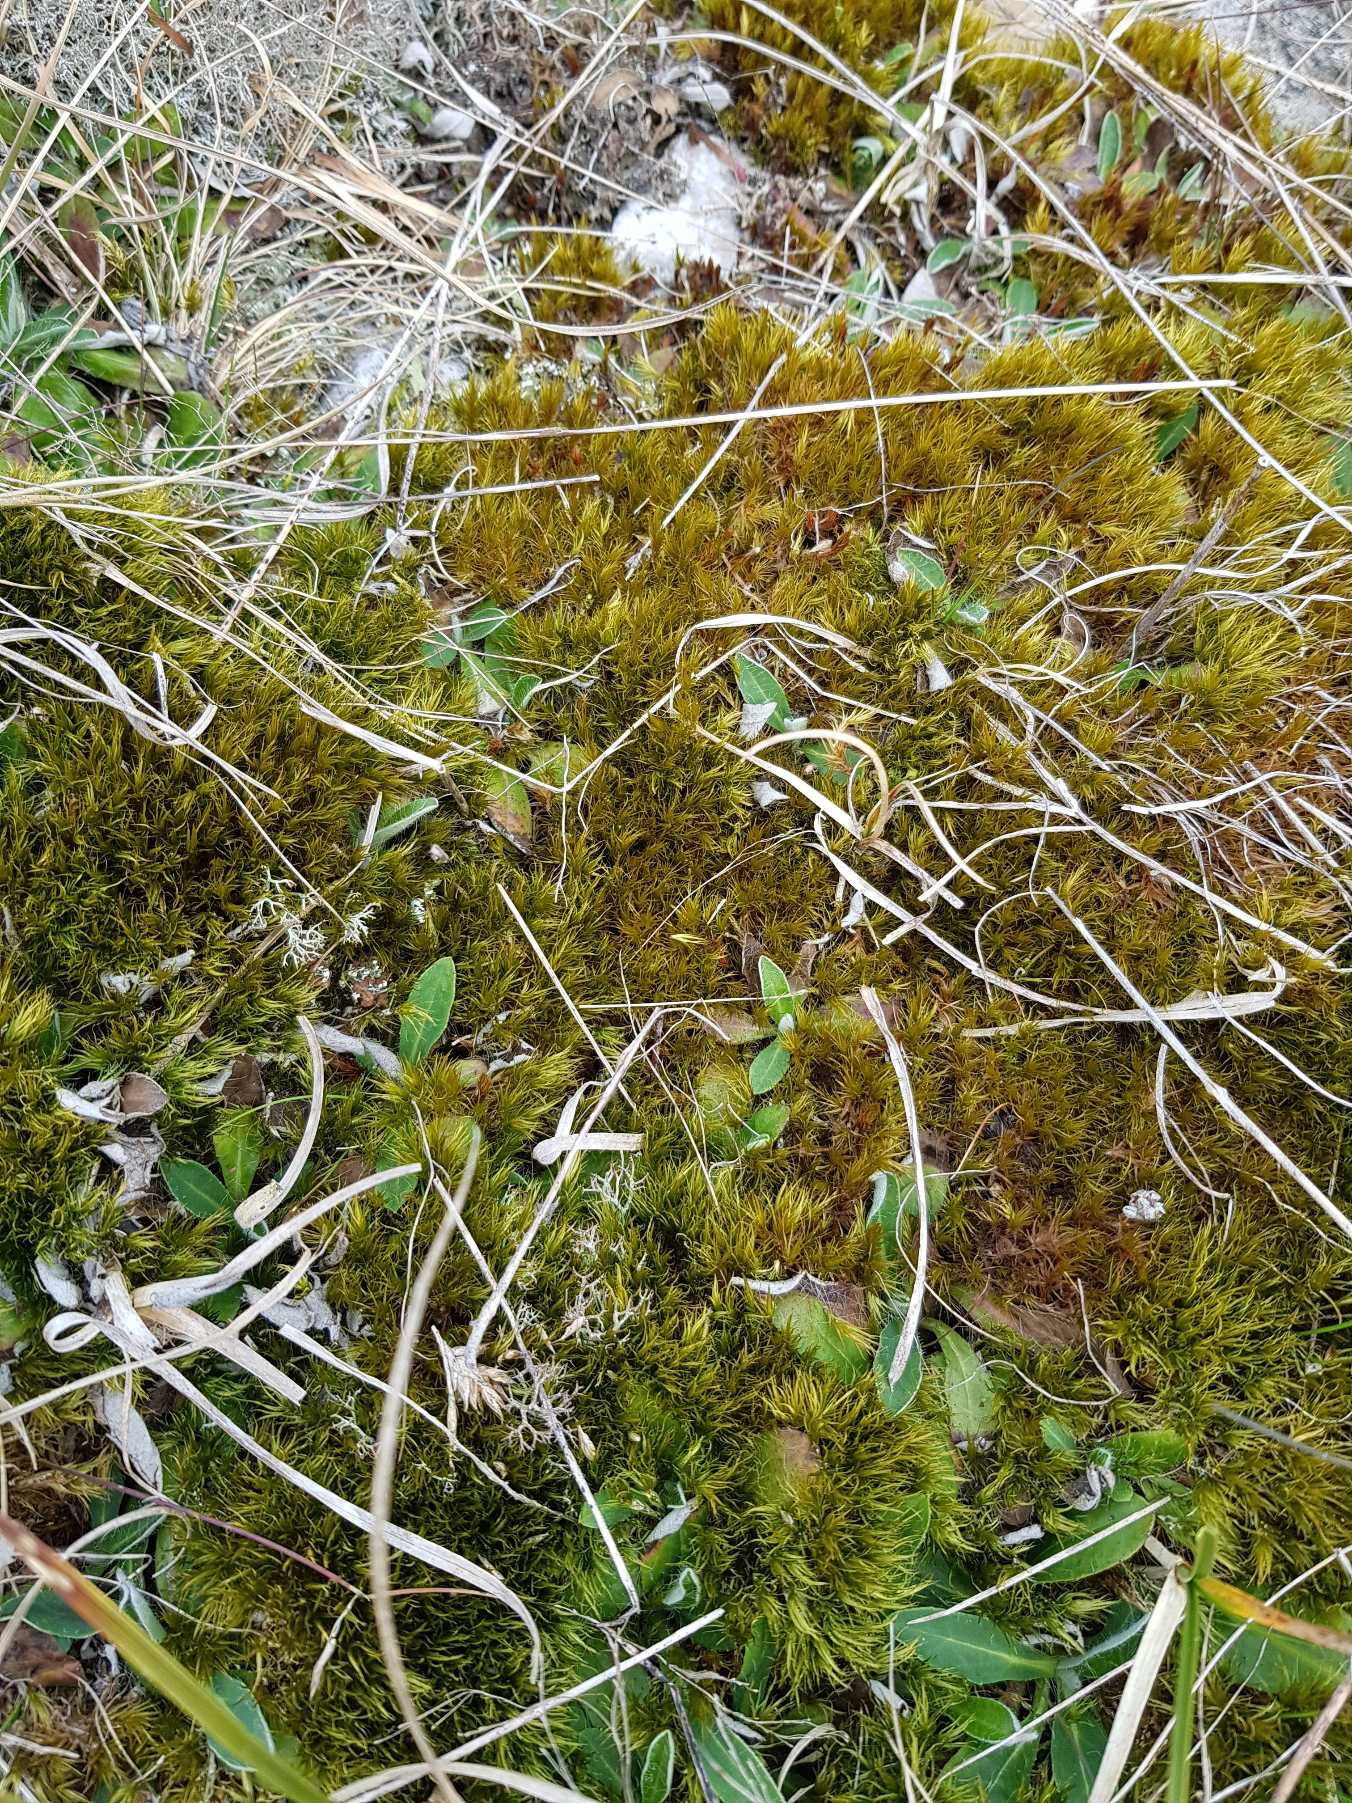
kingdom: Plantae
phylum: Bryophyta
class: Bryopsida
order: Dicranales
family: Dicranaceae
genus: Dicranum
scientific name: Dicranum scoparium
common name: Almindelig kløvtand
